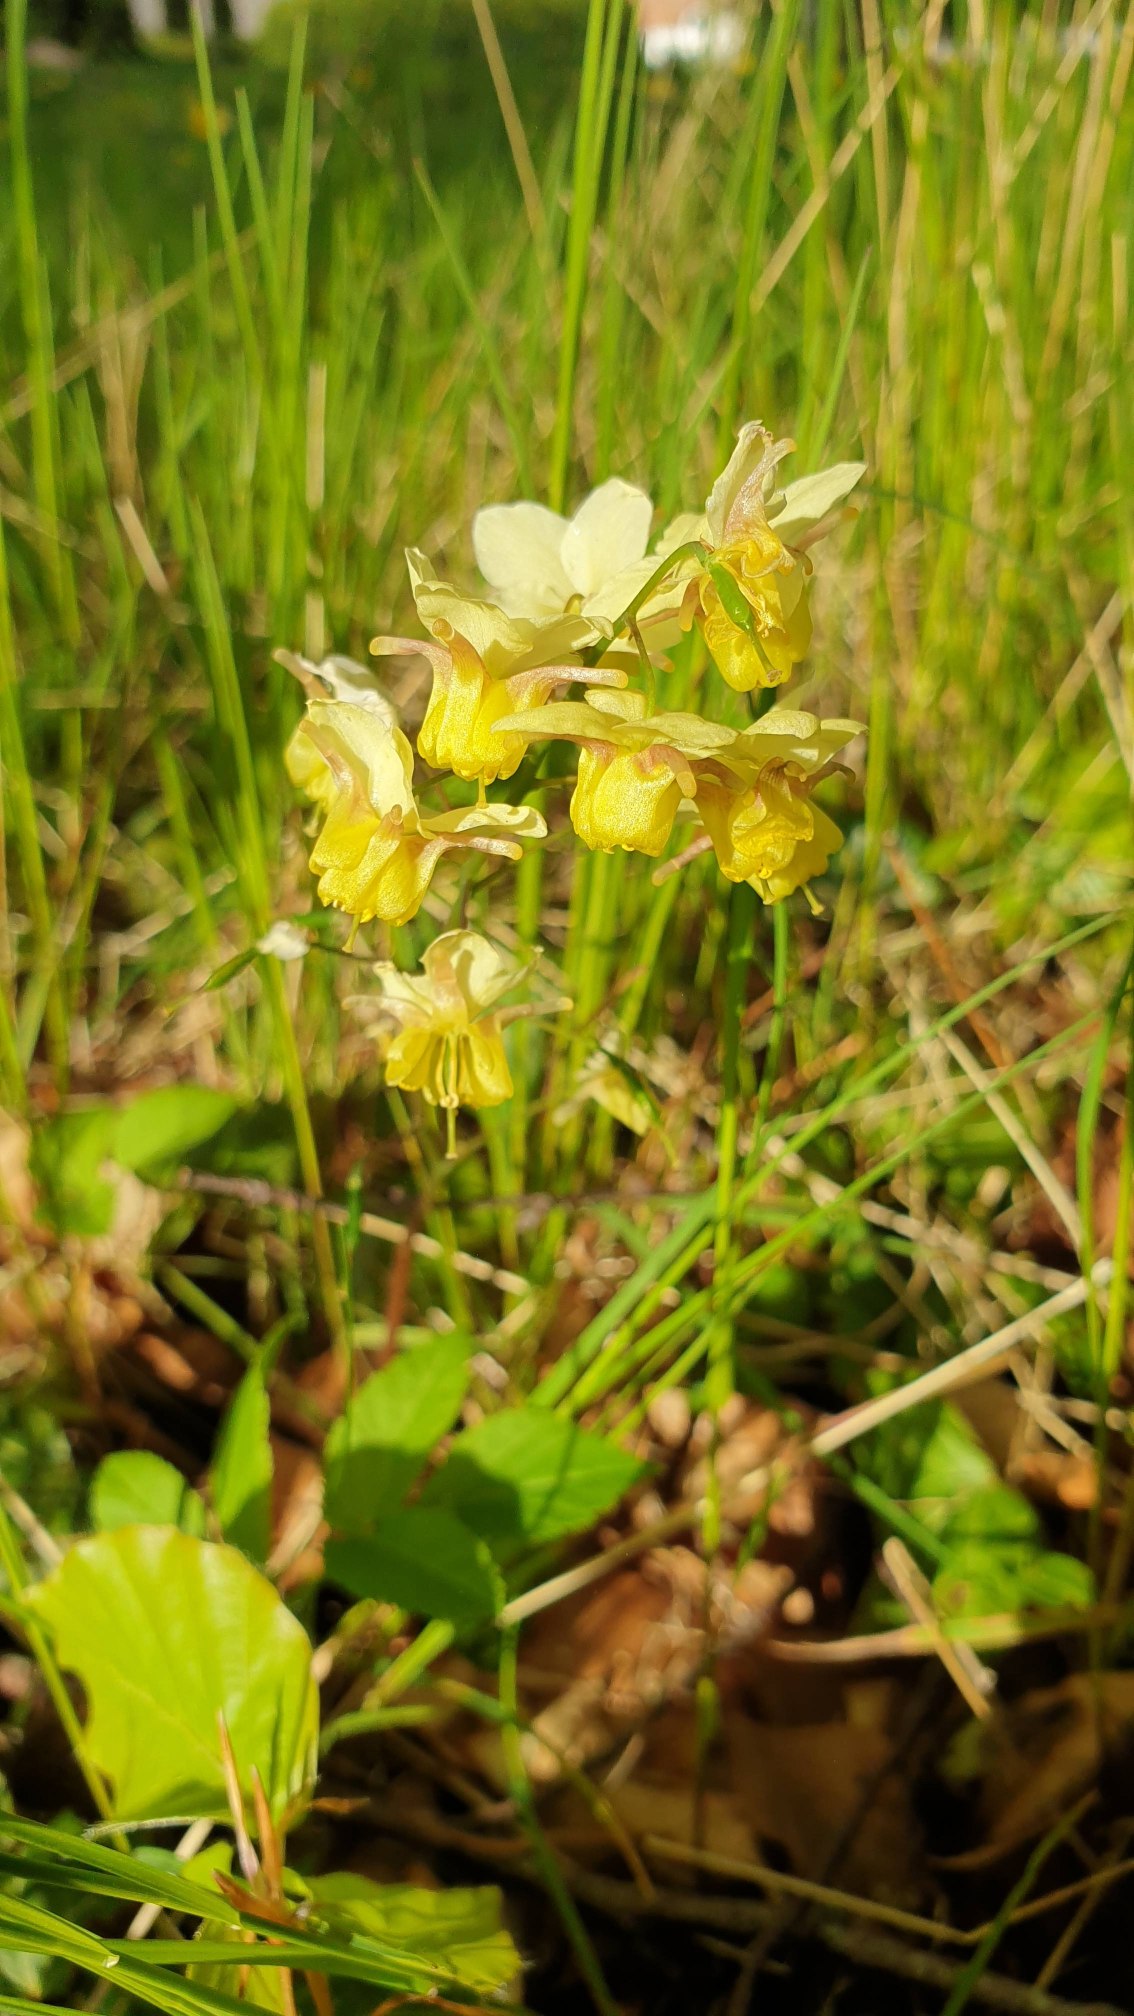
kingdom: Plantae
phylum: Tracheophyta
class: Magnoliopsida
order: Ranunculales
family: Berberidaceae
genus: Epimedium
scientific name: Epimedium versicolor
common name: Svovlgul bispehue
